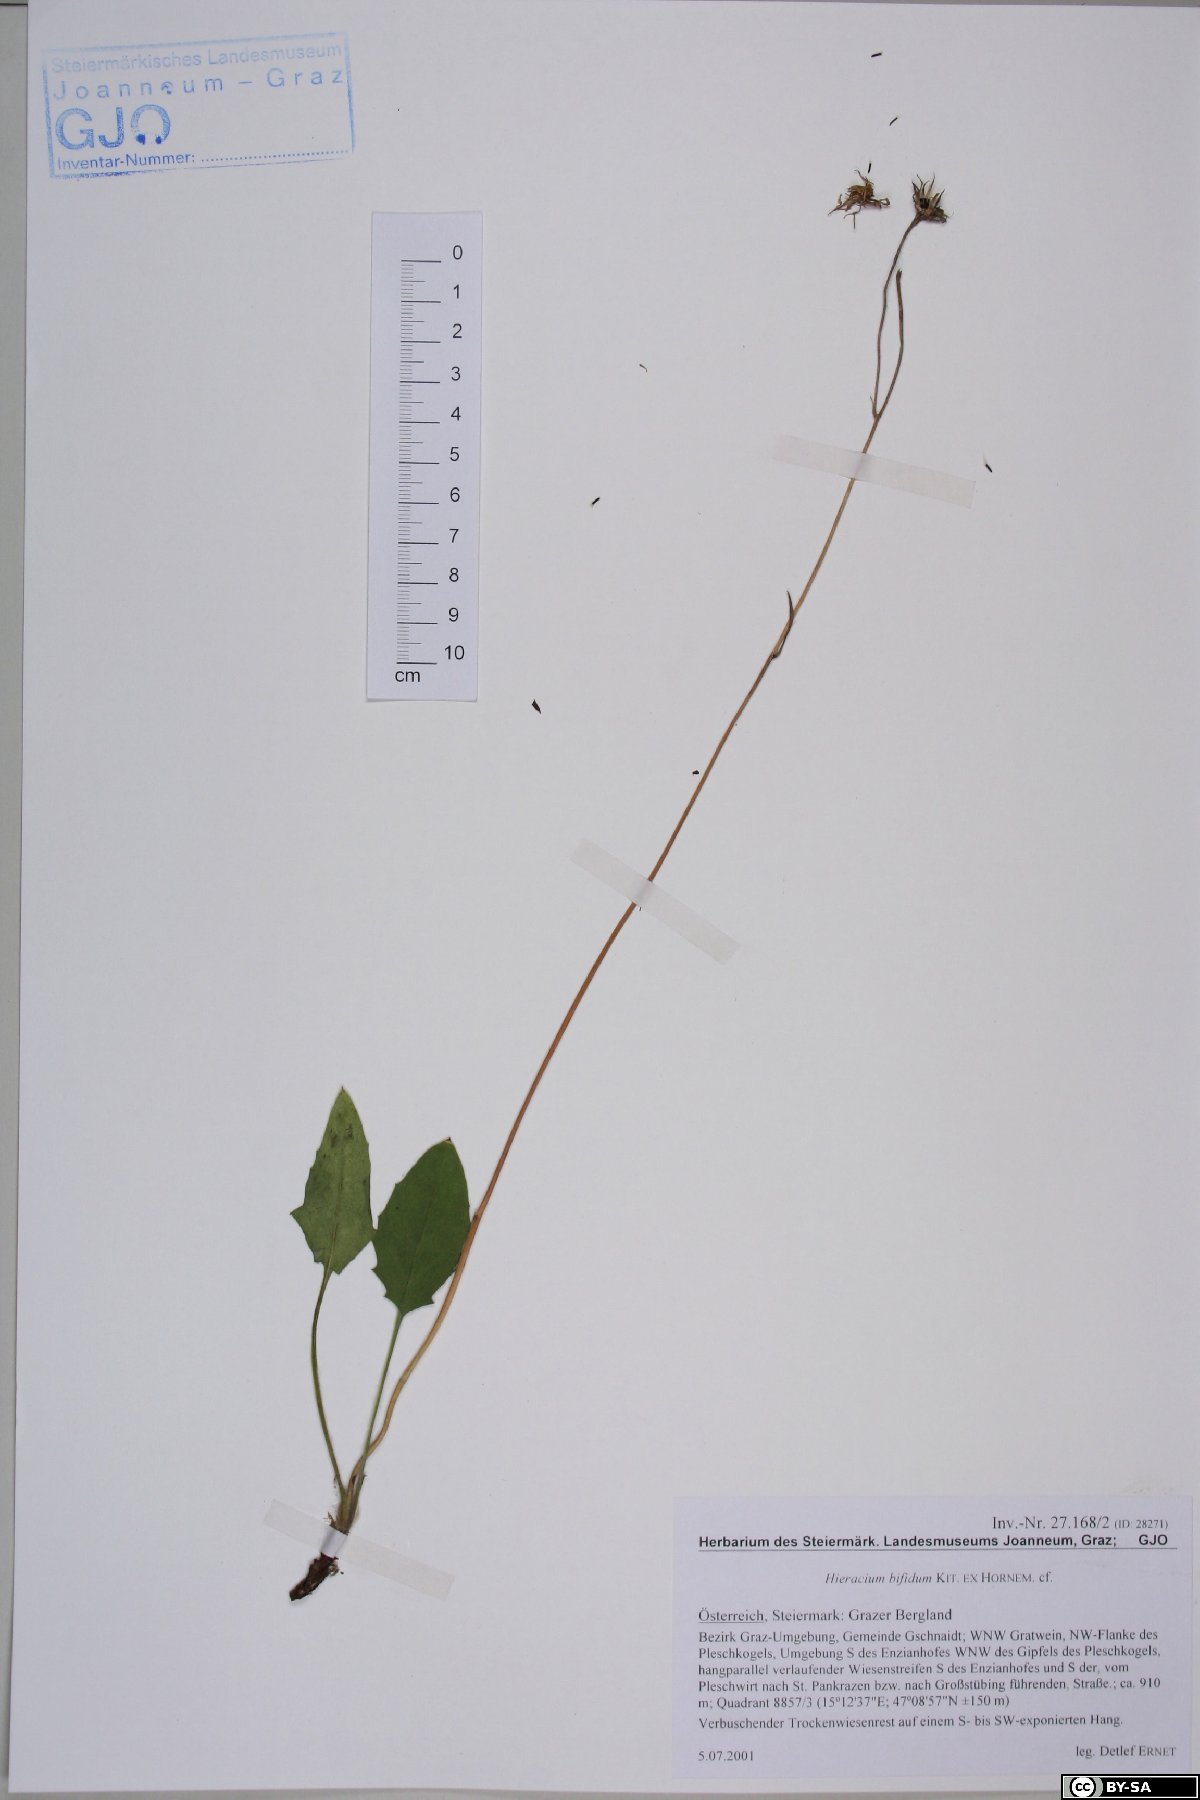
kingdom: Plantae
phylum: Tracheophyta
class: Magnoliopsida
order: Asterales
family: Asteraceae
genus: Hieracium
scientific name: Hieracium bifidum
